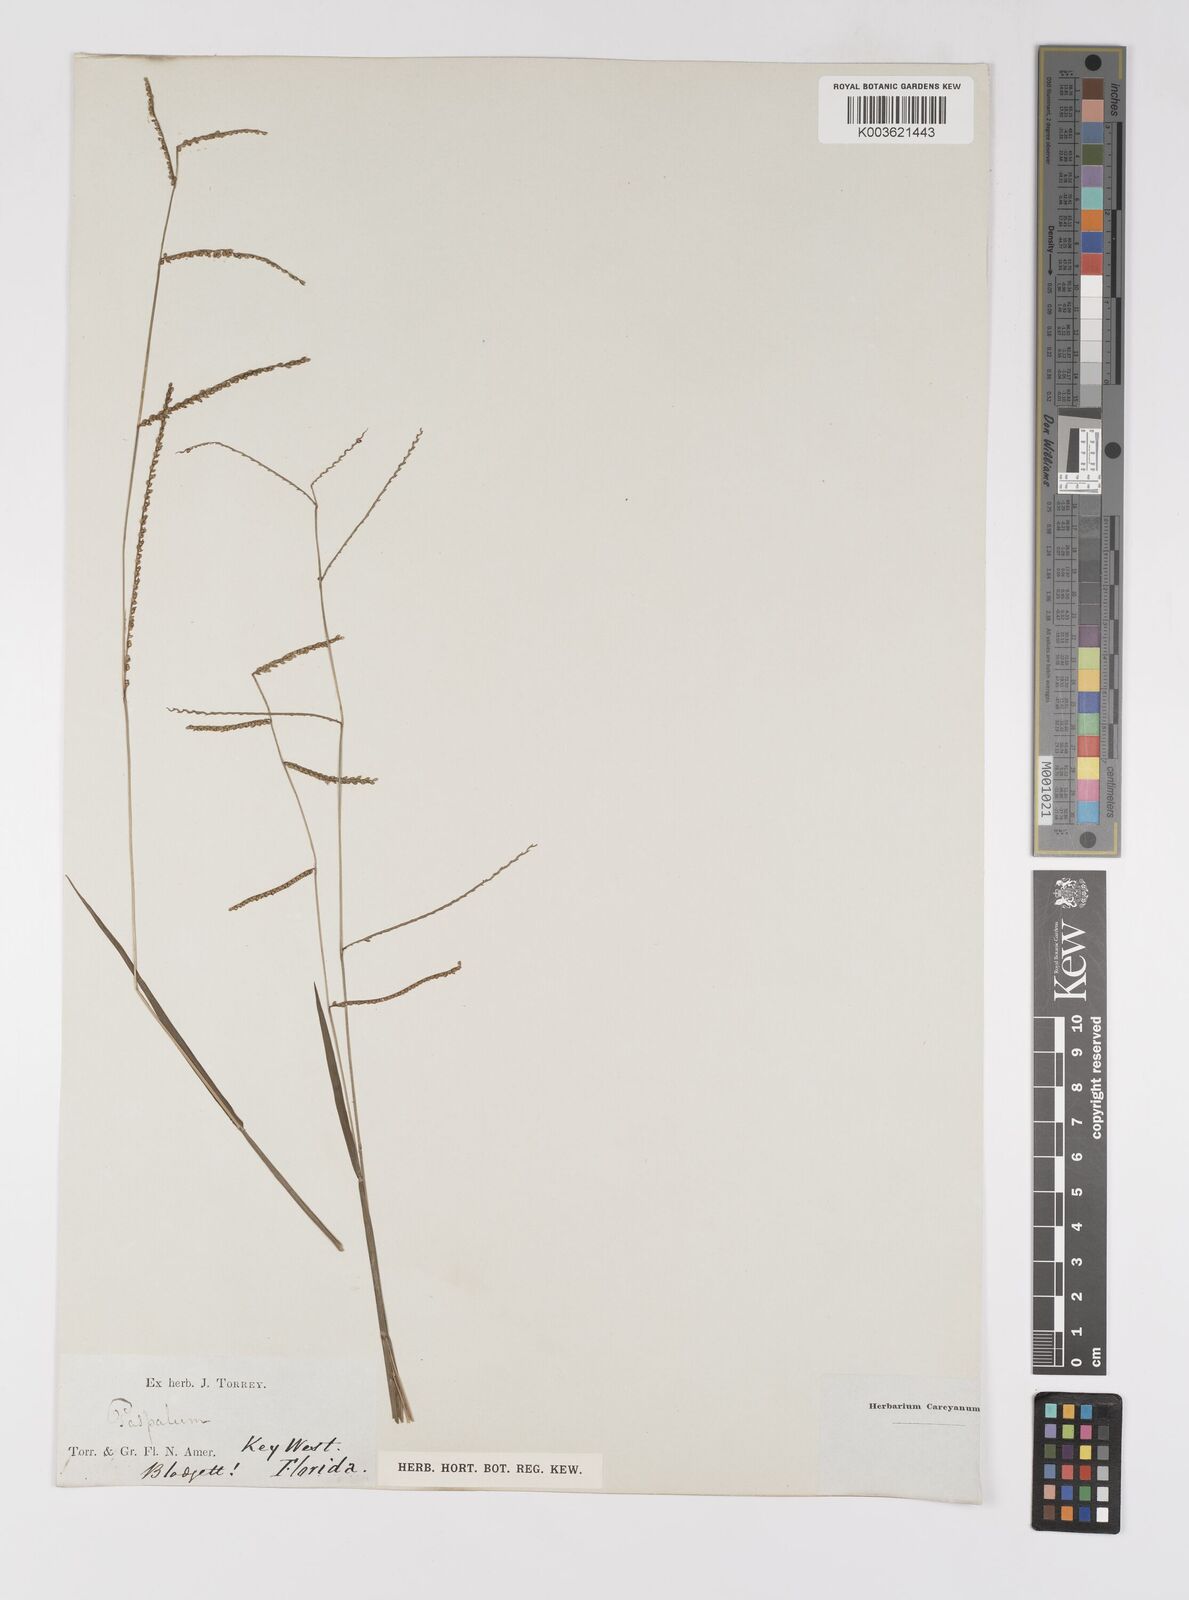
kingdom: Plantae
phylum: Tracheophyta
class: Liliopsida
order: Poales
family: Poaceae
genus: Paspalum
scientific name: Paspalum
